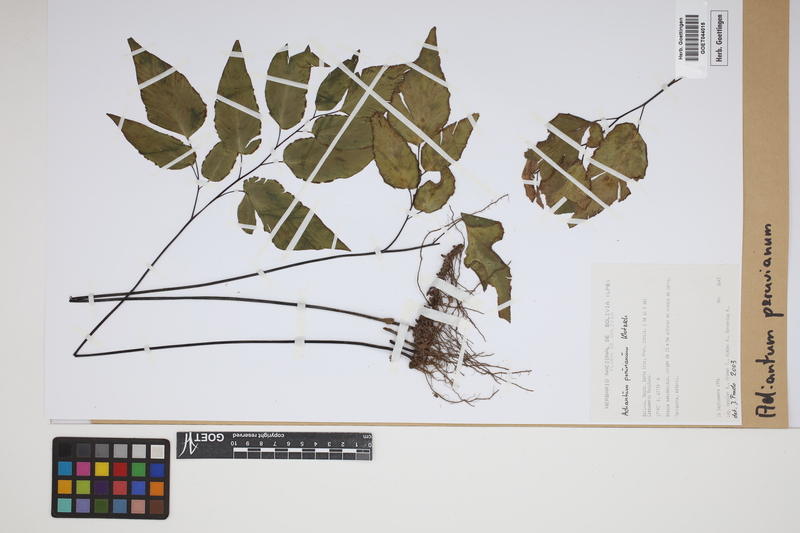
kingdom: Plantae
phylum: Tracheophyta
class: Polypodiopsida
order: Polypodiales
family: Pteridaceae
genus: Adiantum
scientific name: Adiantum peruvianum
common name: Silver-dollar maidenhair fern
